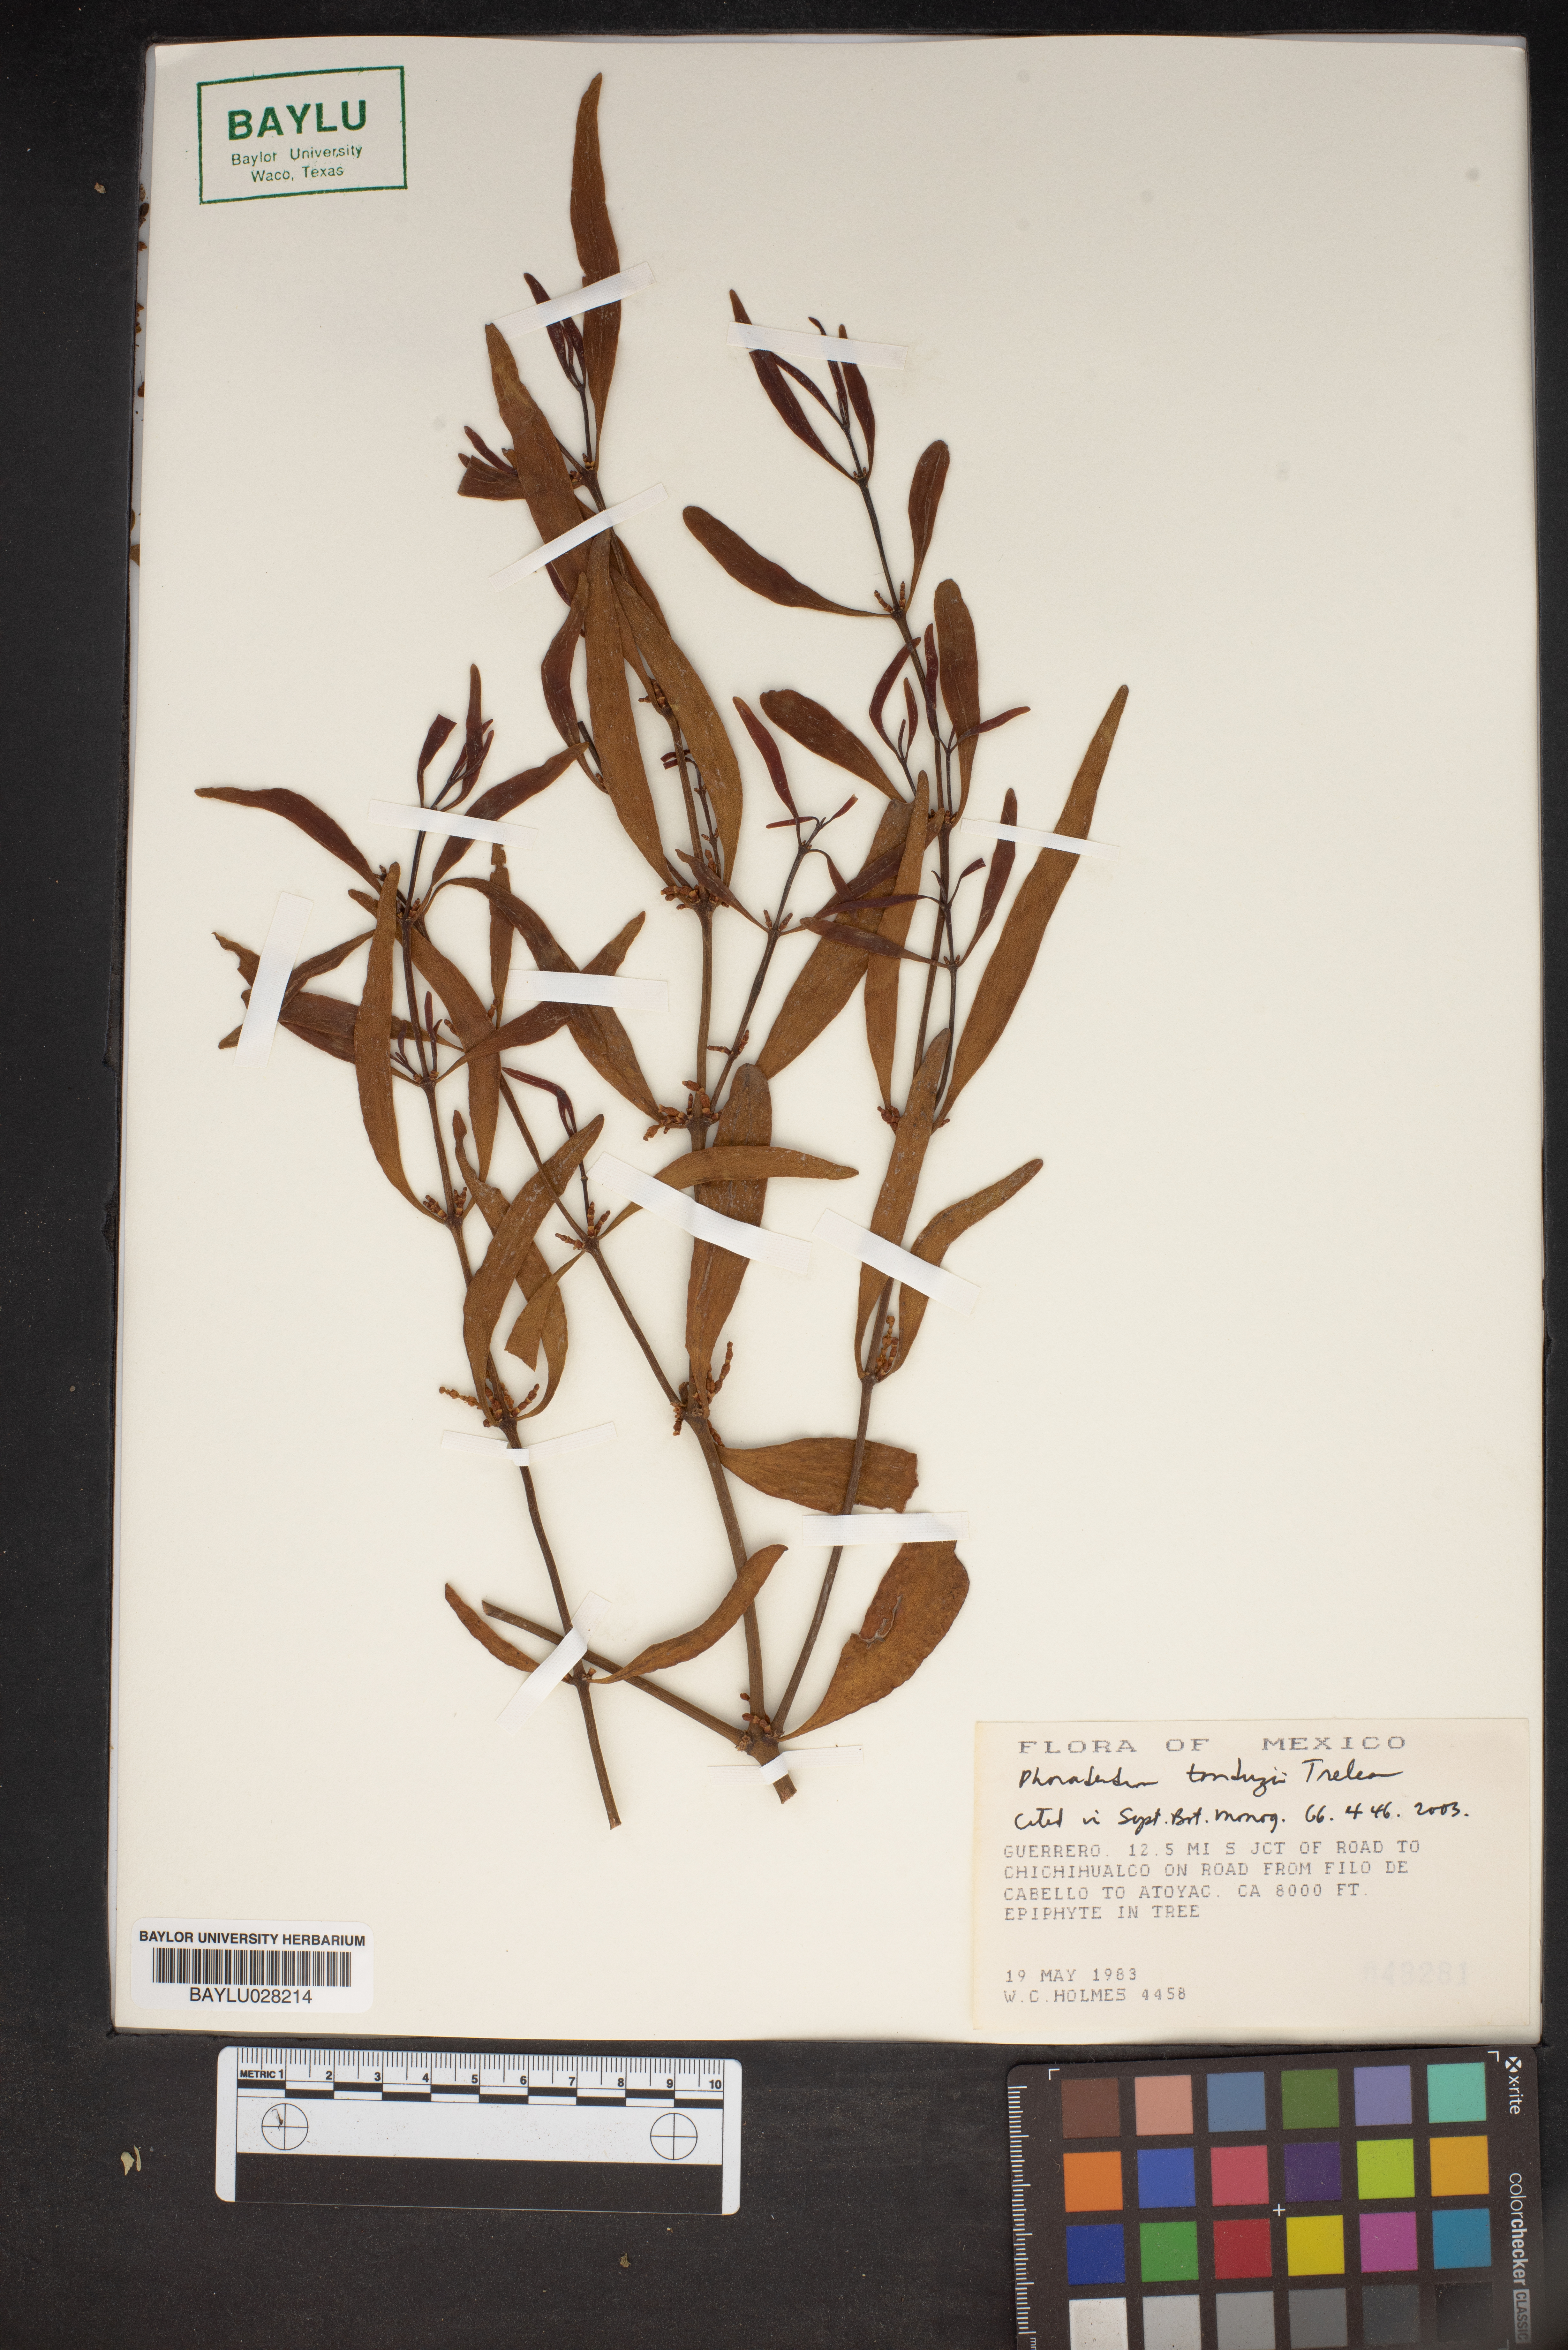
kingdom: Plantae
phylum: Tracheophyta
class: Magnoliopsida
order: Santalales
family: Viscaceae
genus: Phoradendron
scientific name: Phoradendron tonduzii
